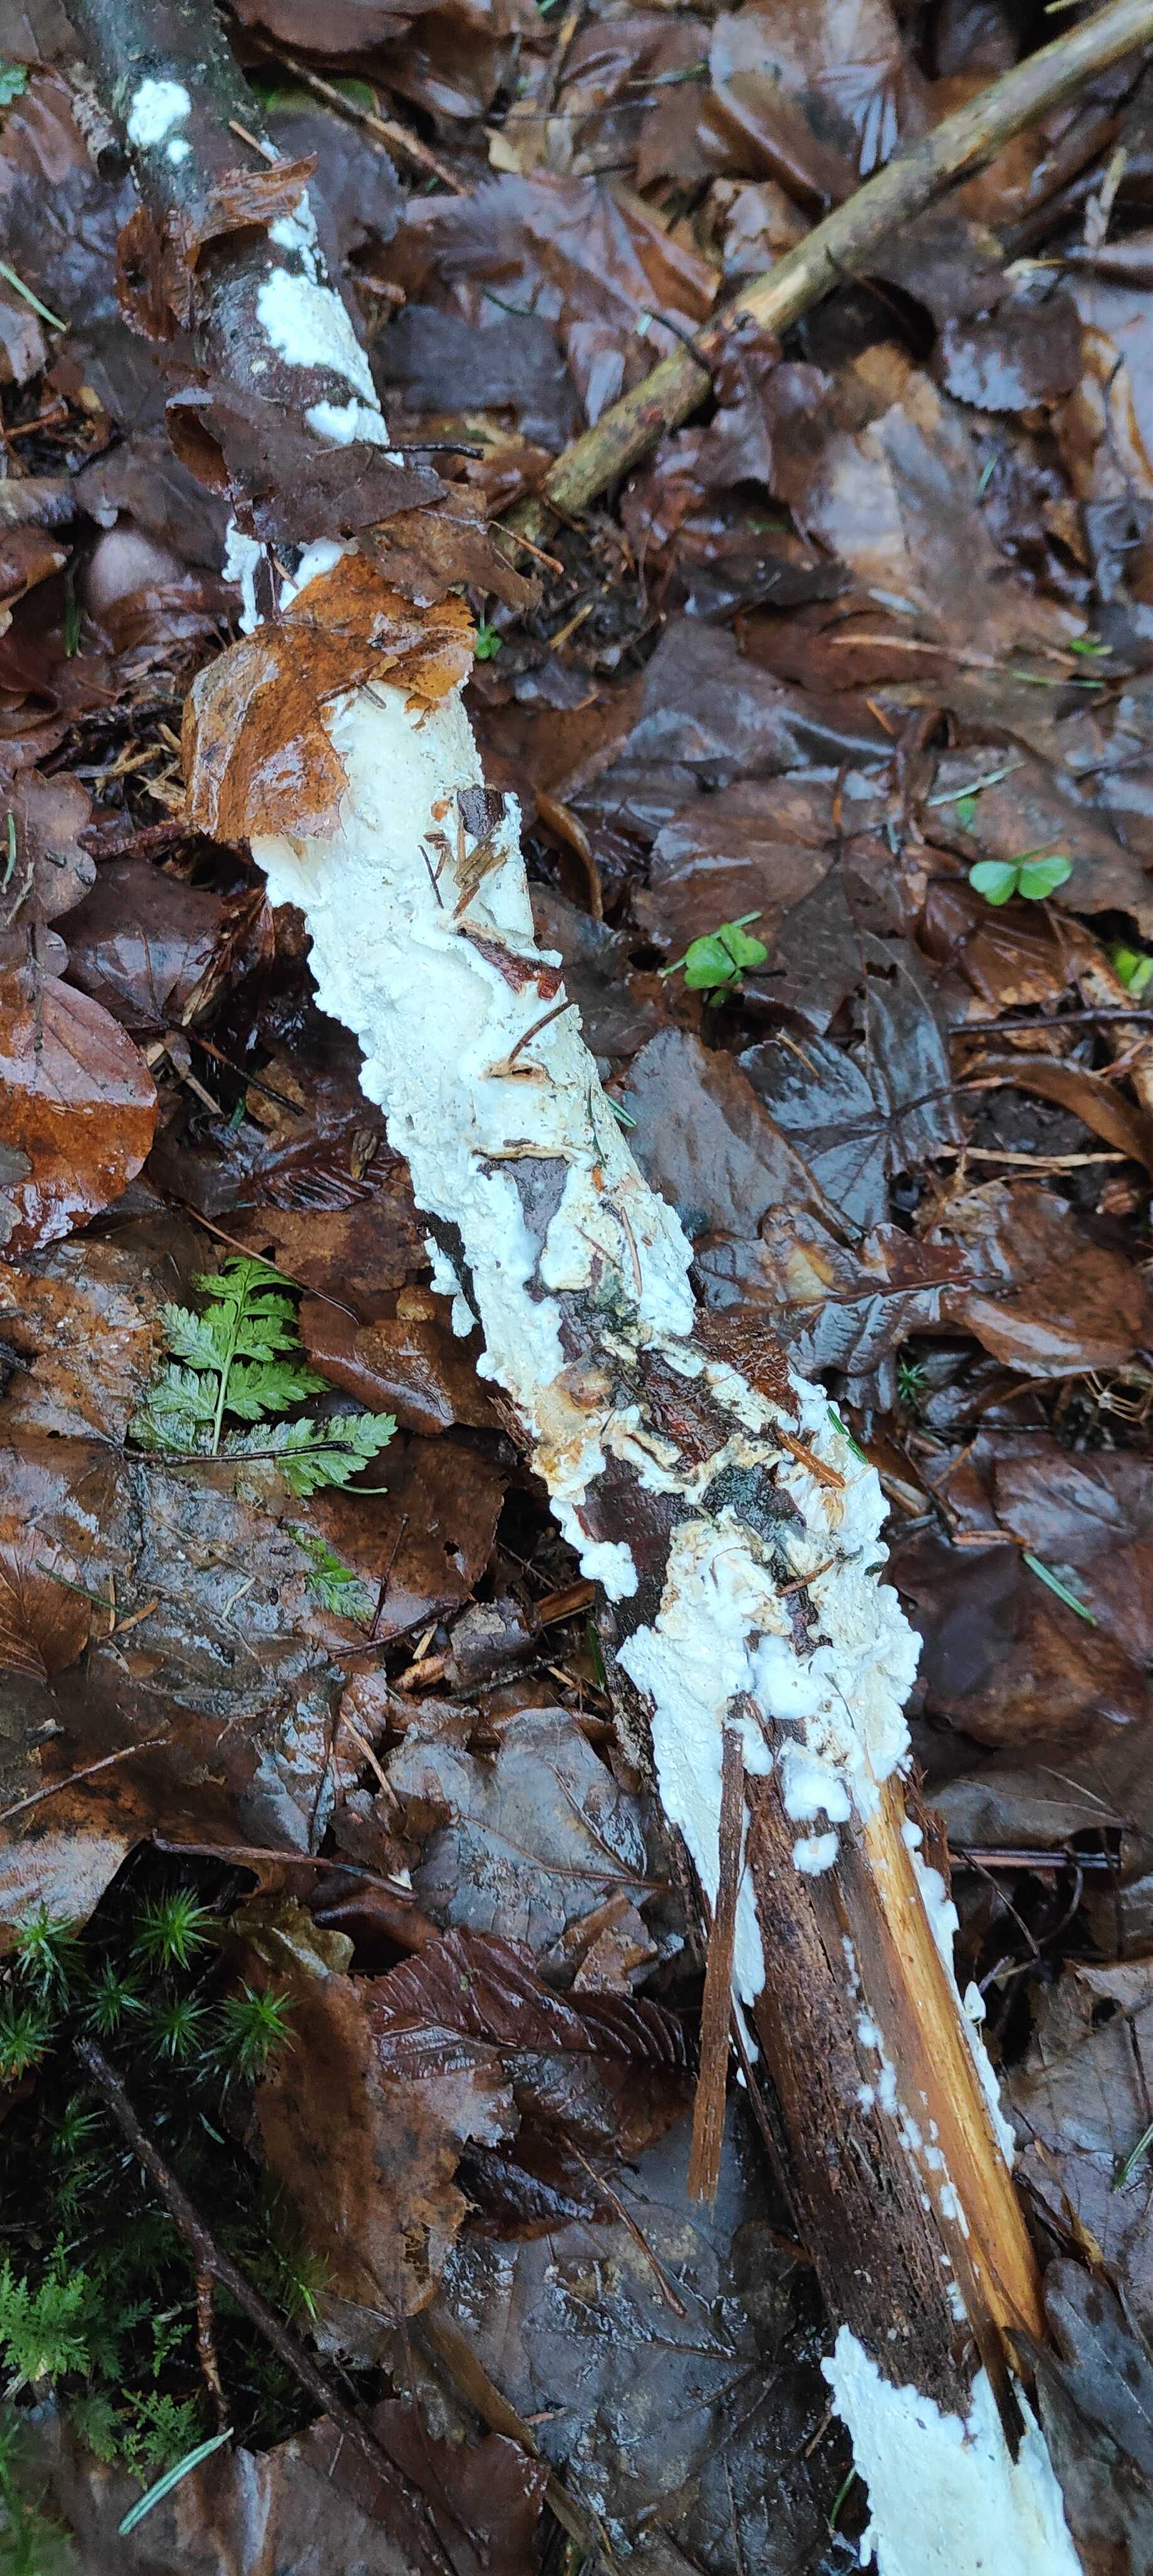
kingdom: Fungi
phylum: Basidiomycota
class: Agaricomycetes
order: Polyporales
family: Irpicaceae
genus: Byssomerulius
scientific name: Byssomerulius corium
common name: læder-åresvamp
